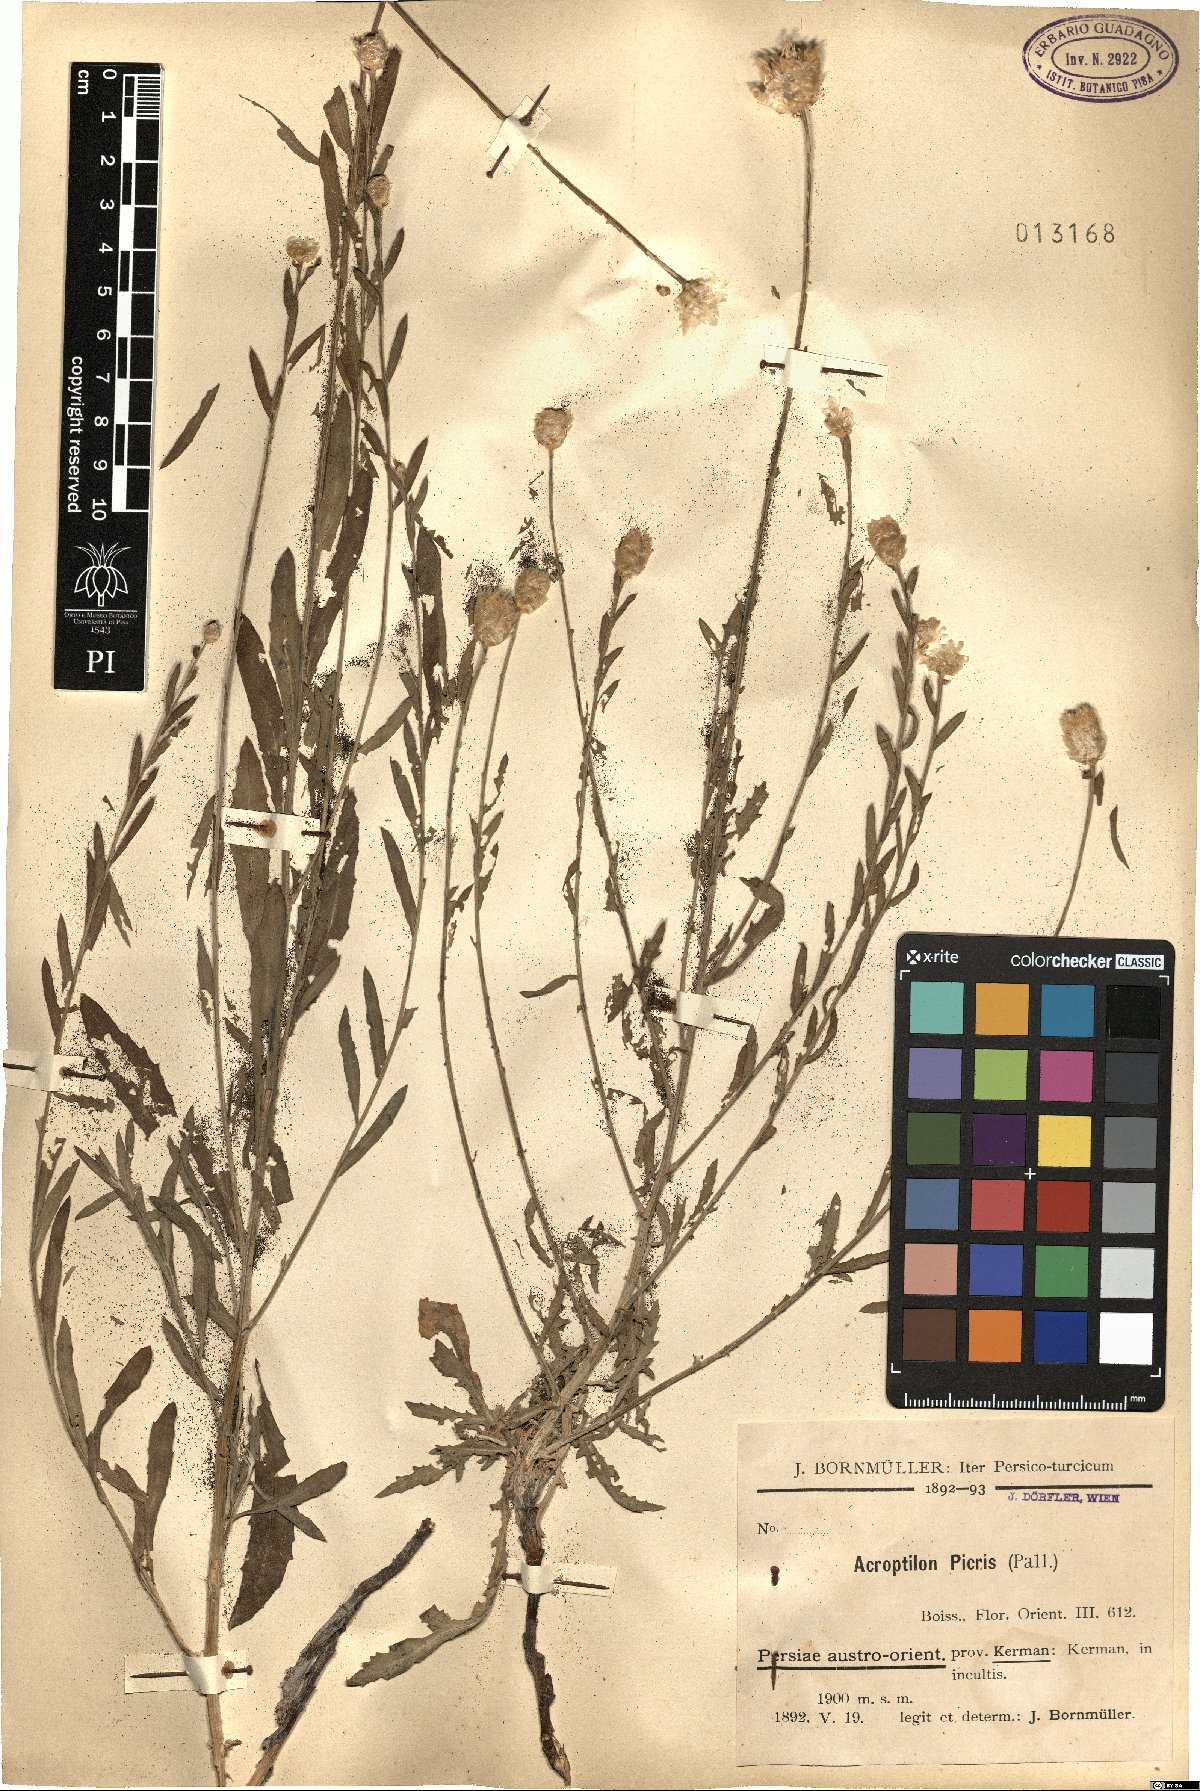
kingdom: Plantae
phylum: Tracheophyta
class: Magnoliopsida
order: Asterales
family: Asteraceae
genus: Leuzea
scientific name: Leuzea repens
